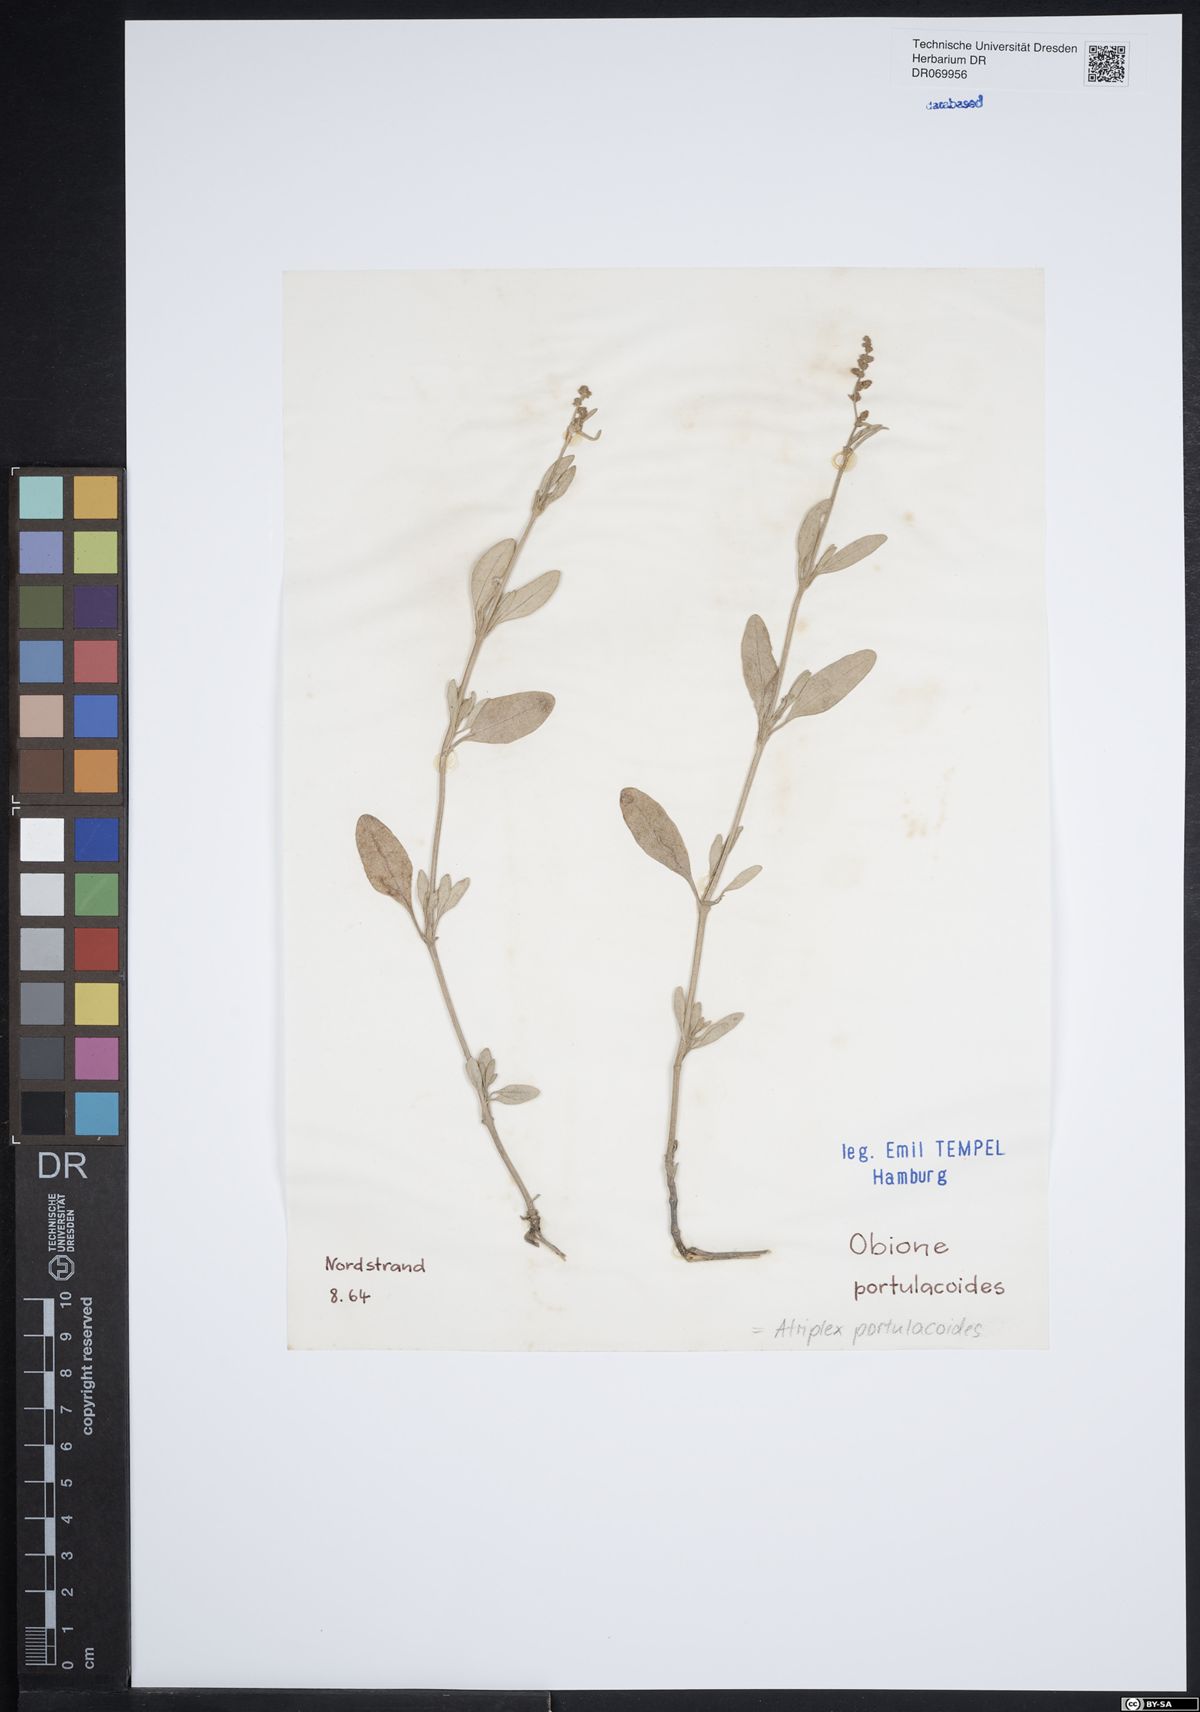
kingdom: Plantae
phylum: Tracheophyta
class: Magnoliopsida
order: Caryophyllales
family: Amaranthaceae
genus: Halimione
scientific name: Halimione portulacoides
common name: Sea-purslane
